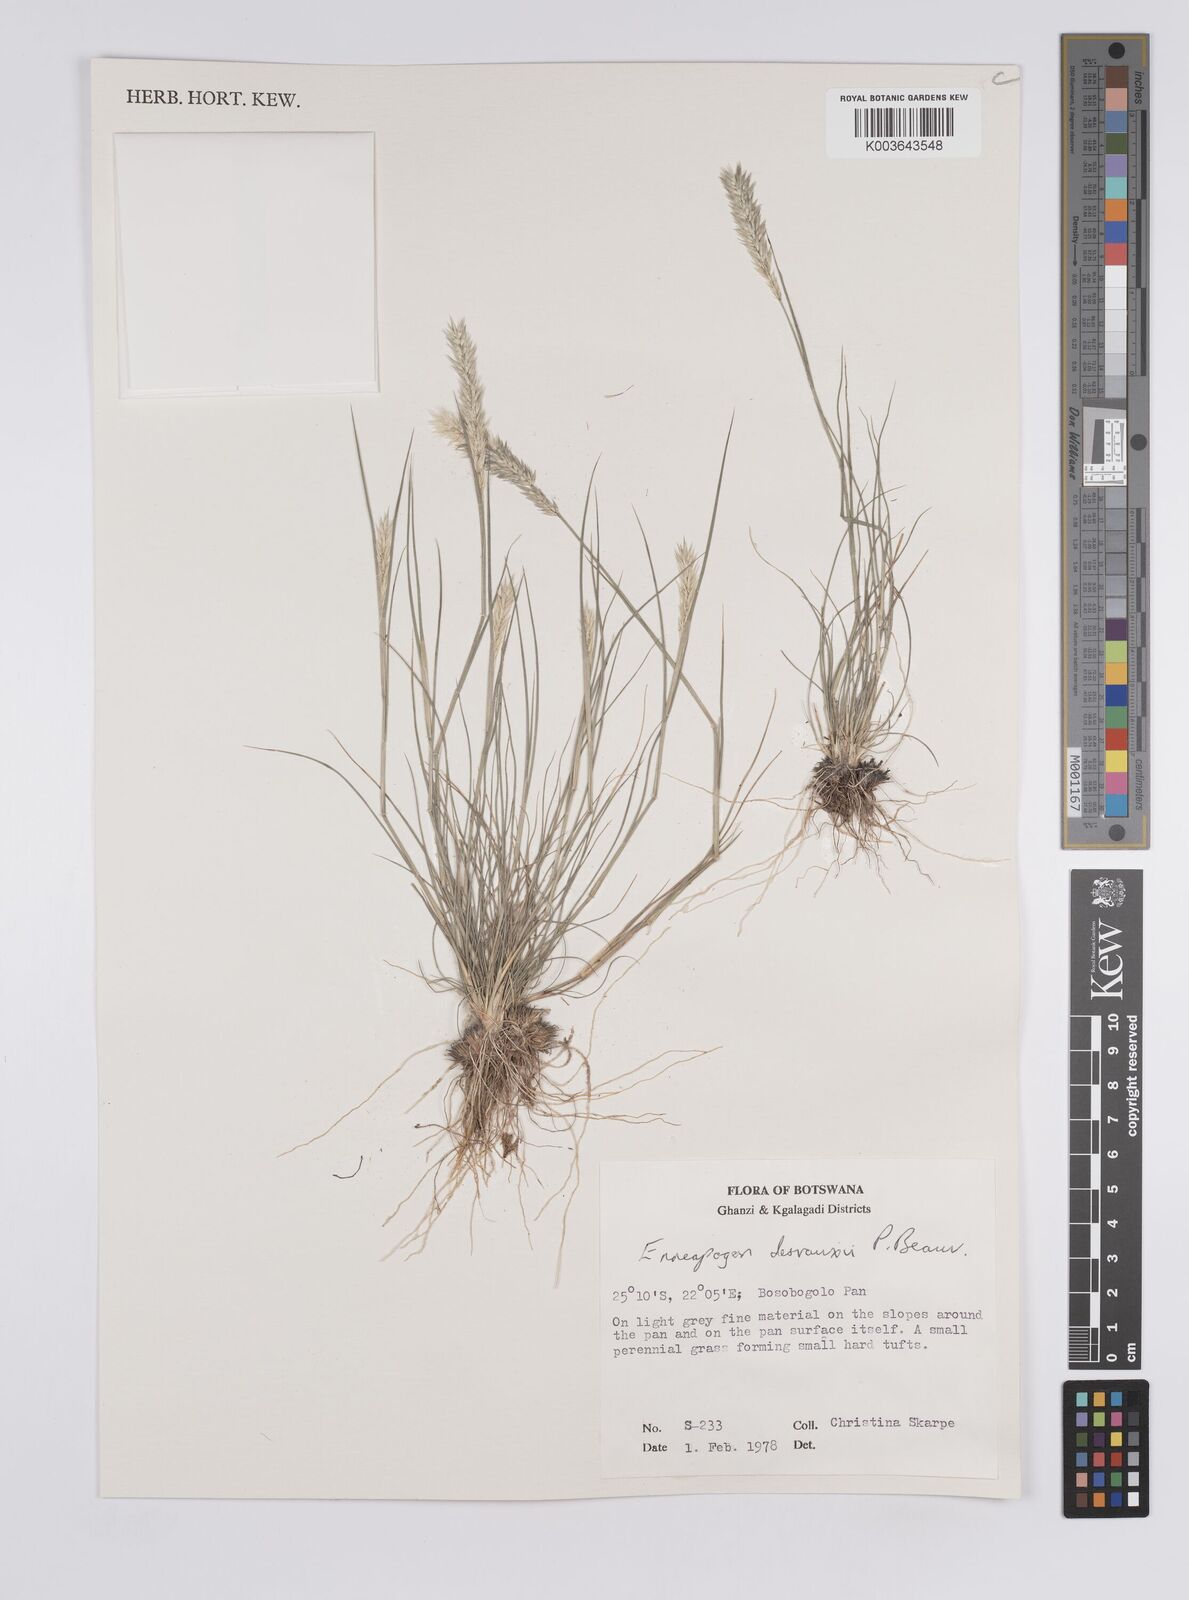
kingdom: Plantae
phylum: Tracheophyta
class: Liliopsida
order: Poales
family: Poaceae
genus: Enneapogon
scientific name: Enneapogon desvauxii
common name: Feather pappus grass
